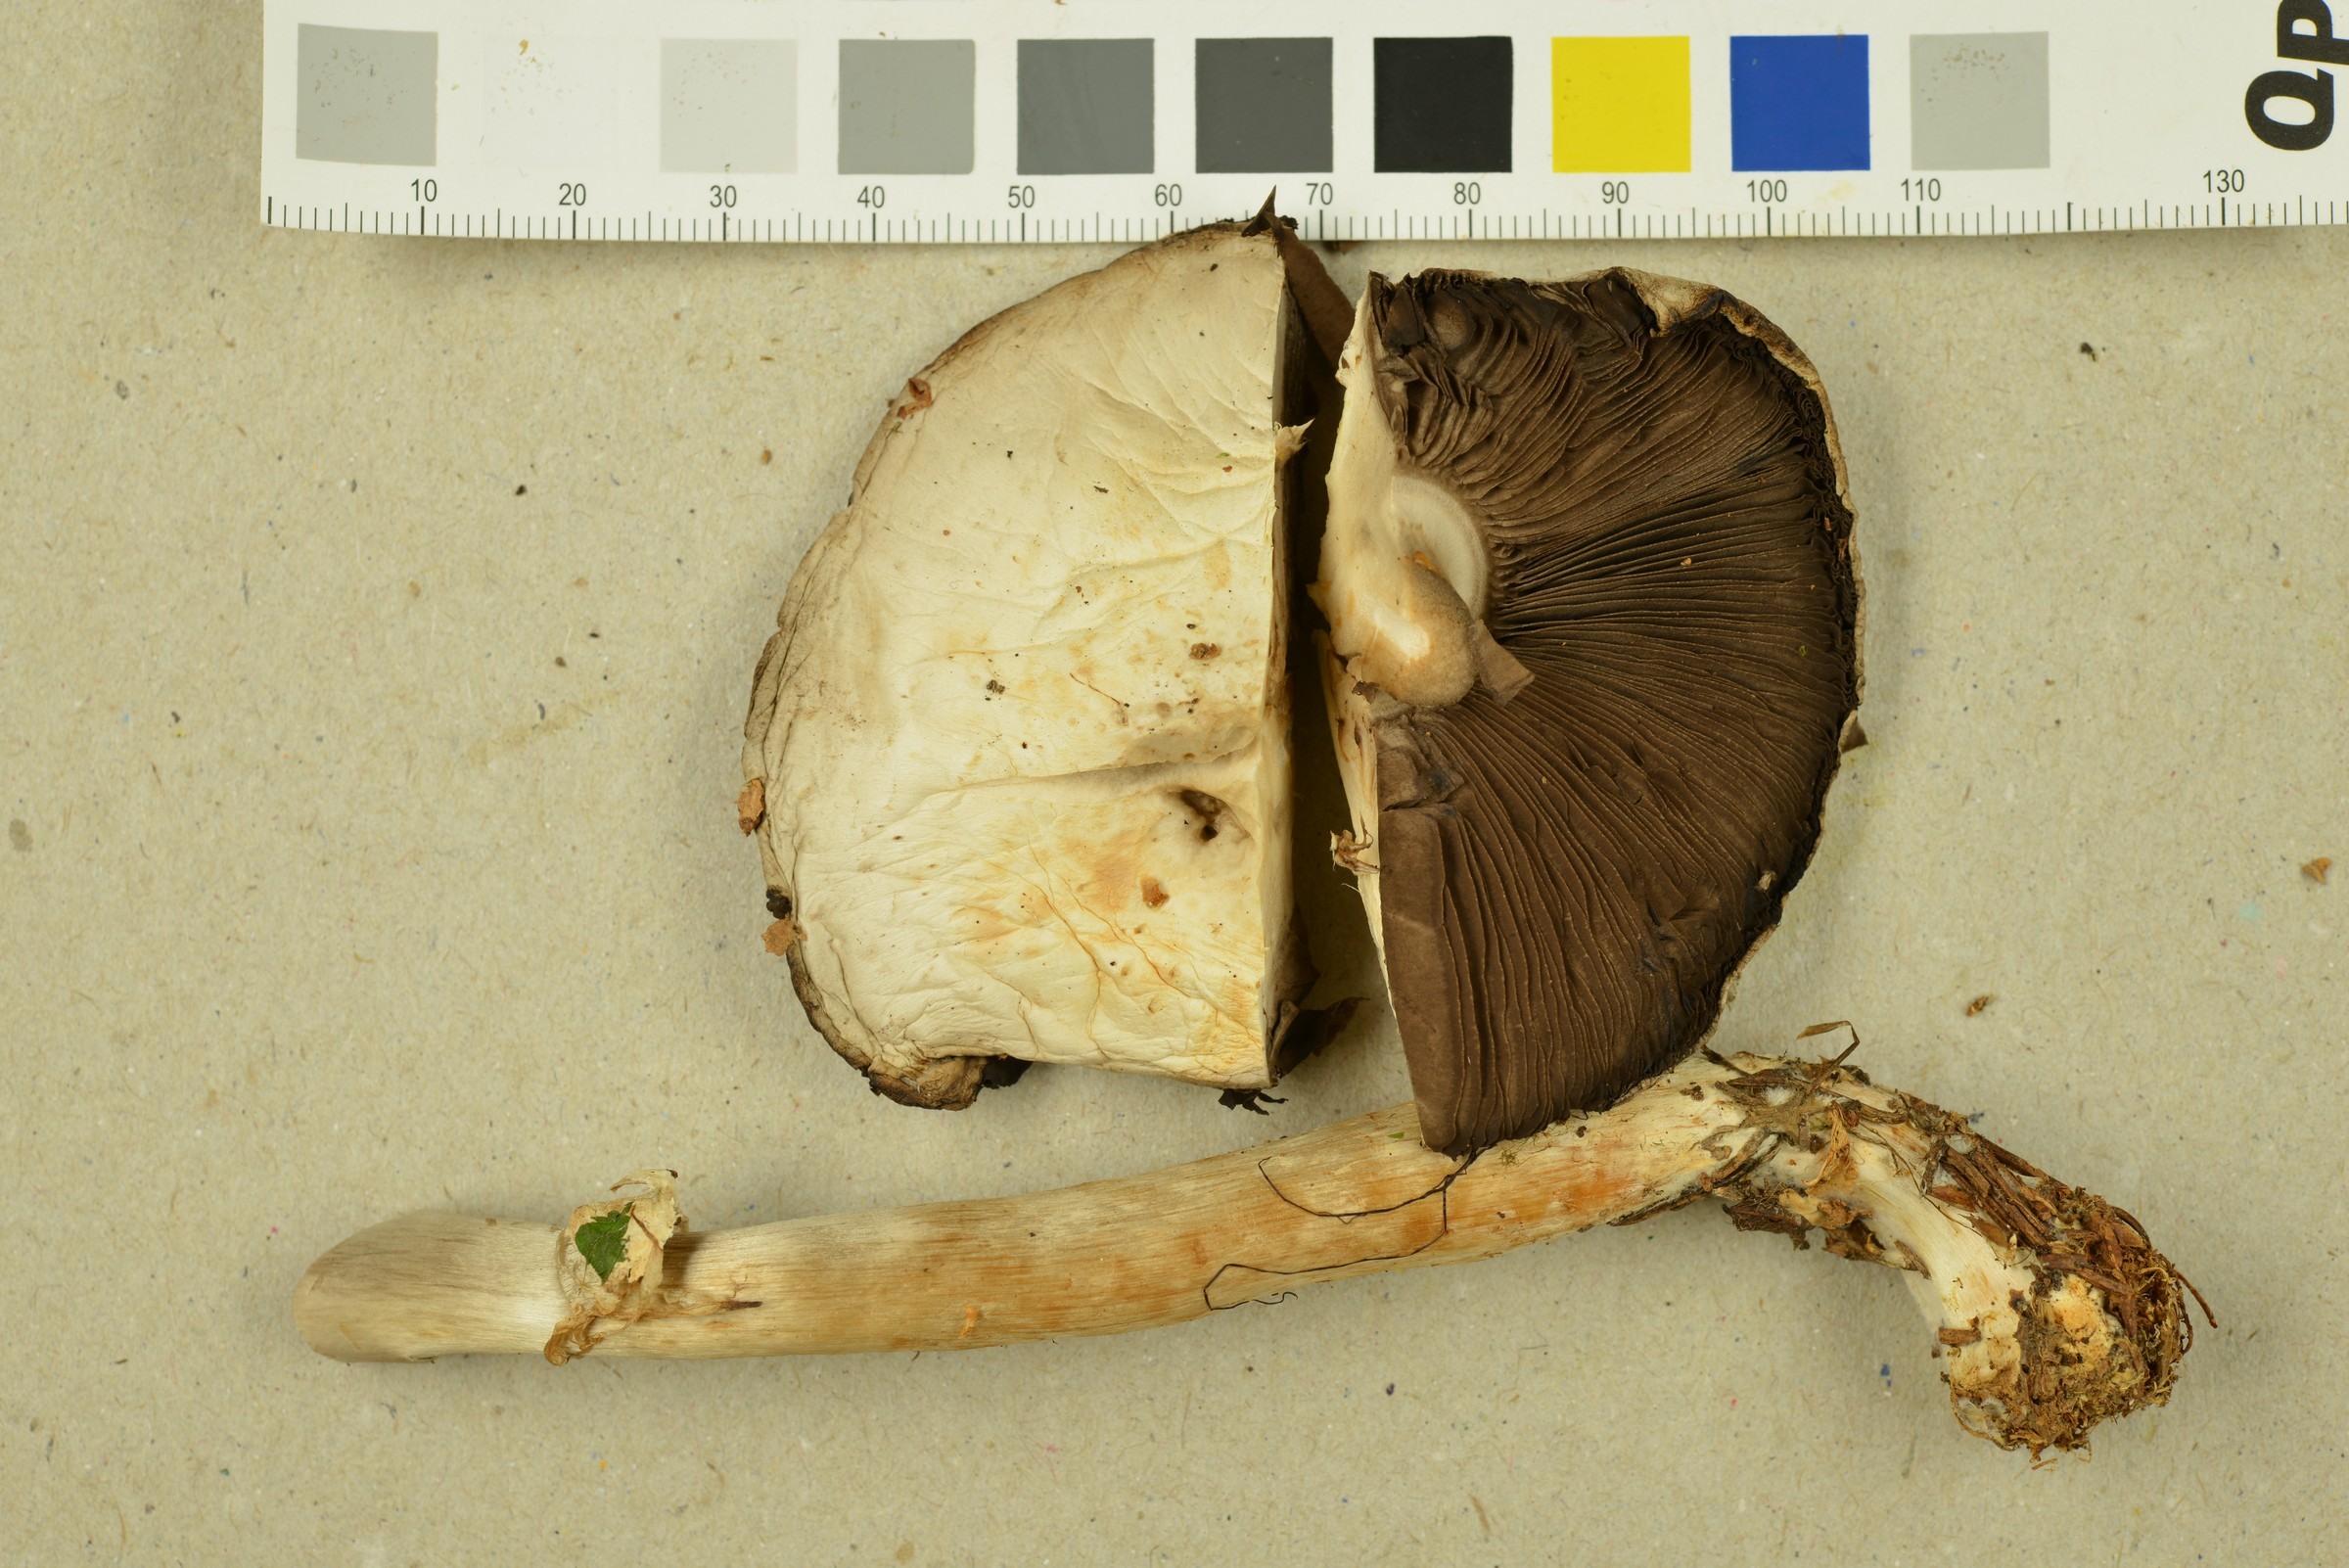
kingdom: Fungi
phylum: Basidiomycota
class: Agaricomycetes
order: Agaricales
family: Agaricaceae
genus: Agaricus
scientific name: Agaricus abruptibulbus
